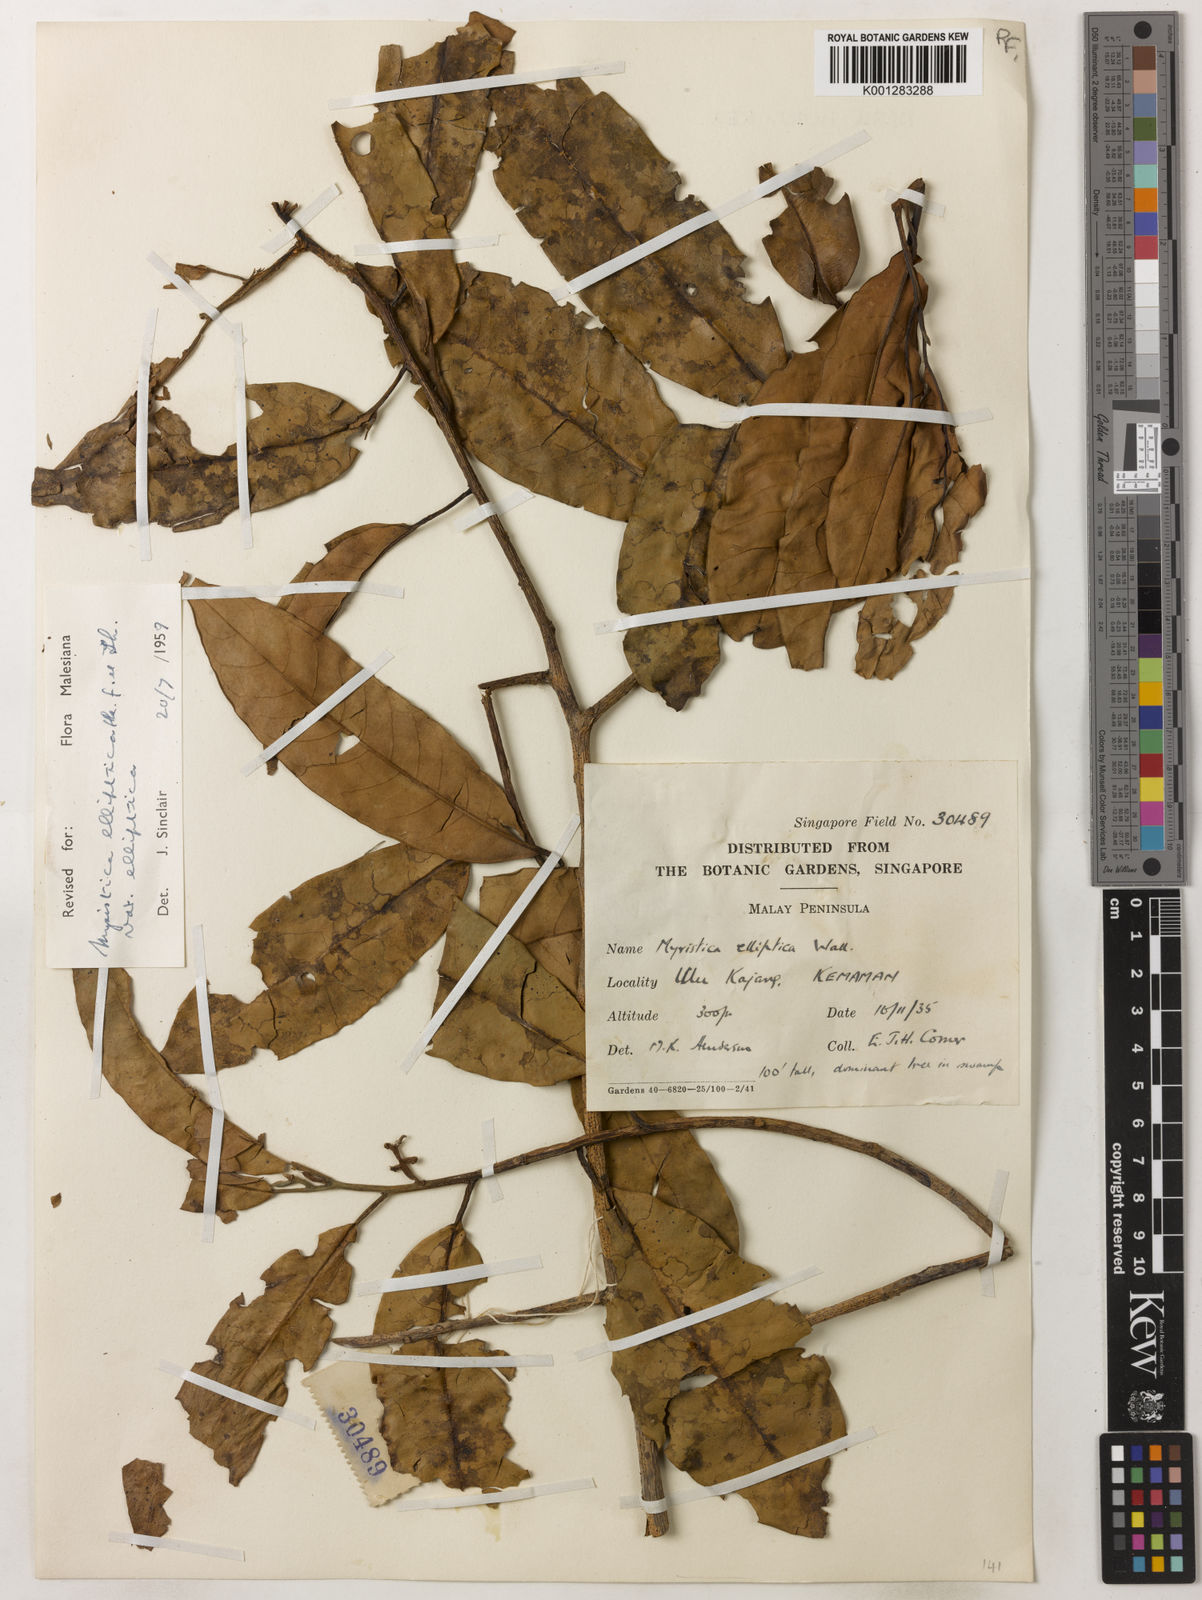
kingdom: Plantae
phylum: Tracheophyta
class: Magnoliopsida
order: Magnoliales
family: Myristicaceae
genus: Myristica
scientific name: Myristica elliptica
